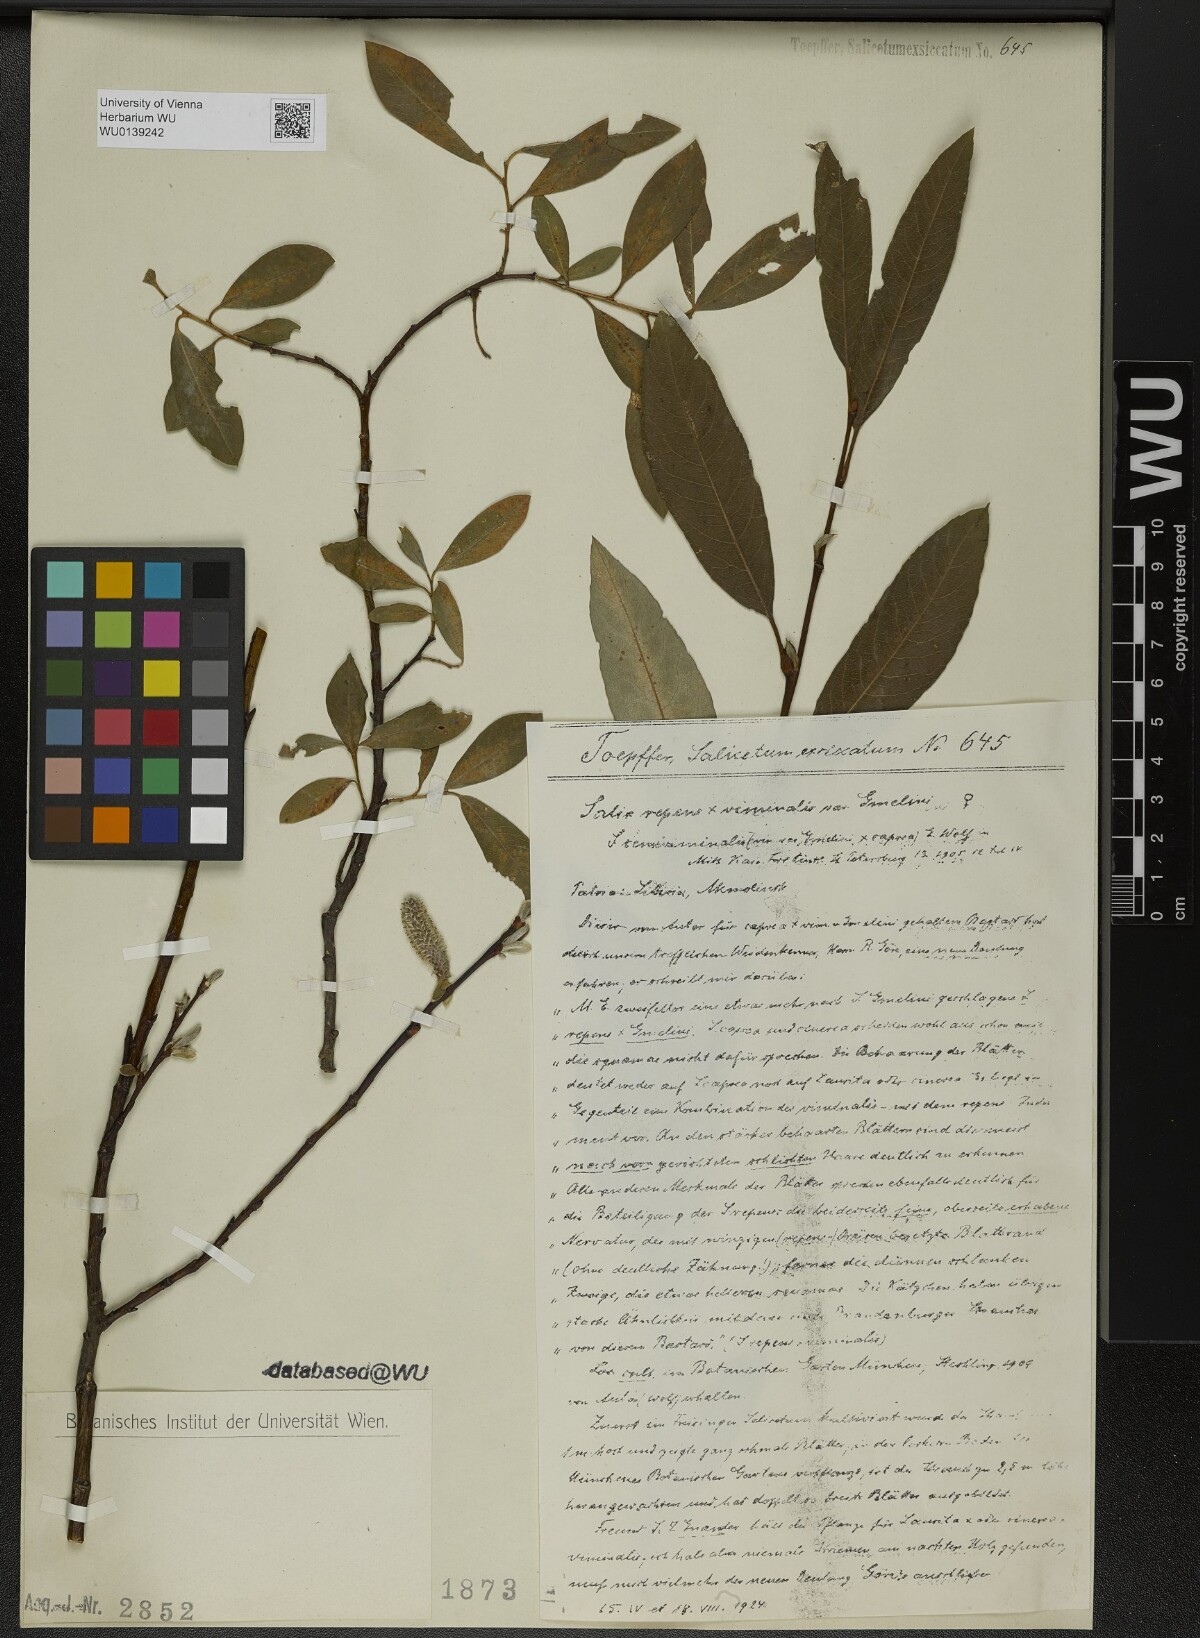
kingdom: Plantae
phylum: Tracheophyta
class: Magnoliopsida
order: Malpighiales
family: Salicaceae
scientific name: Salicaceae
